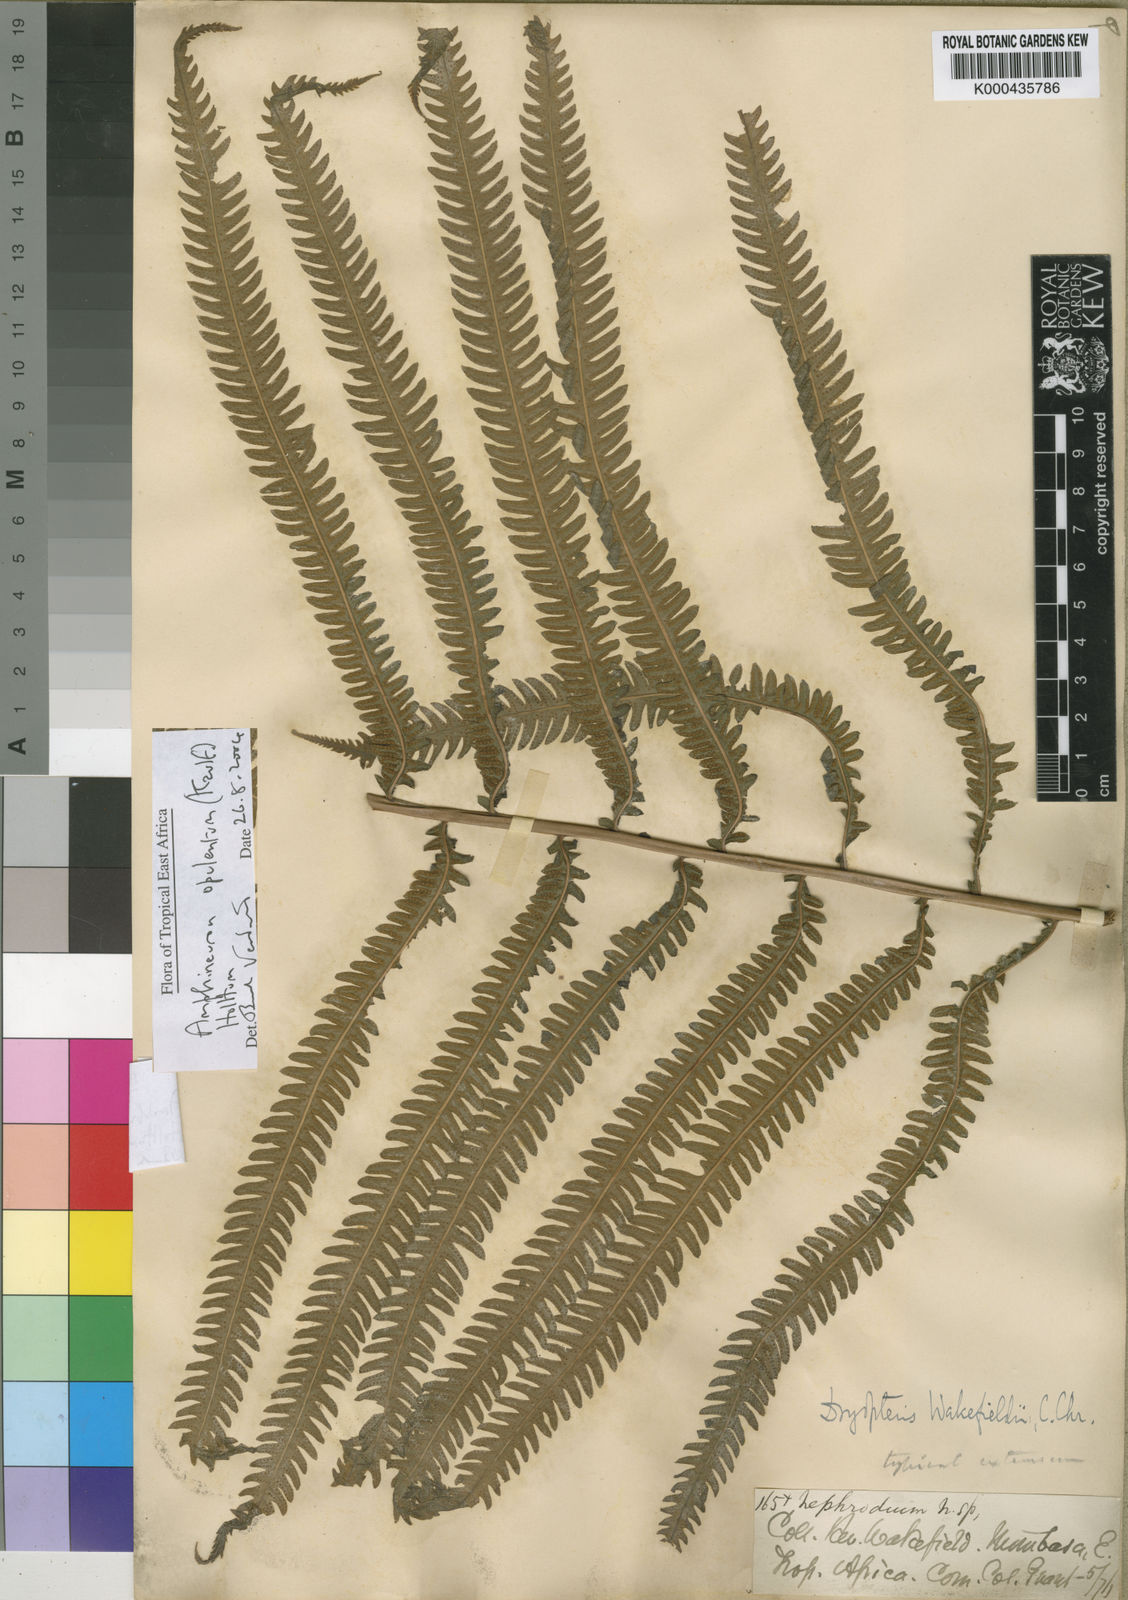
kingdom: Plantae
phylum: Tracheophyta
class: Polypodiopsida
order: Polypodiales
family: Thelypteridaceae
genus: Amblovenatum
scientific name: Amblovenatum opulentum
